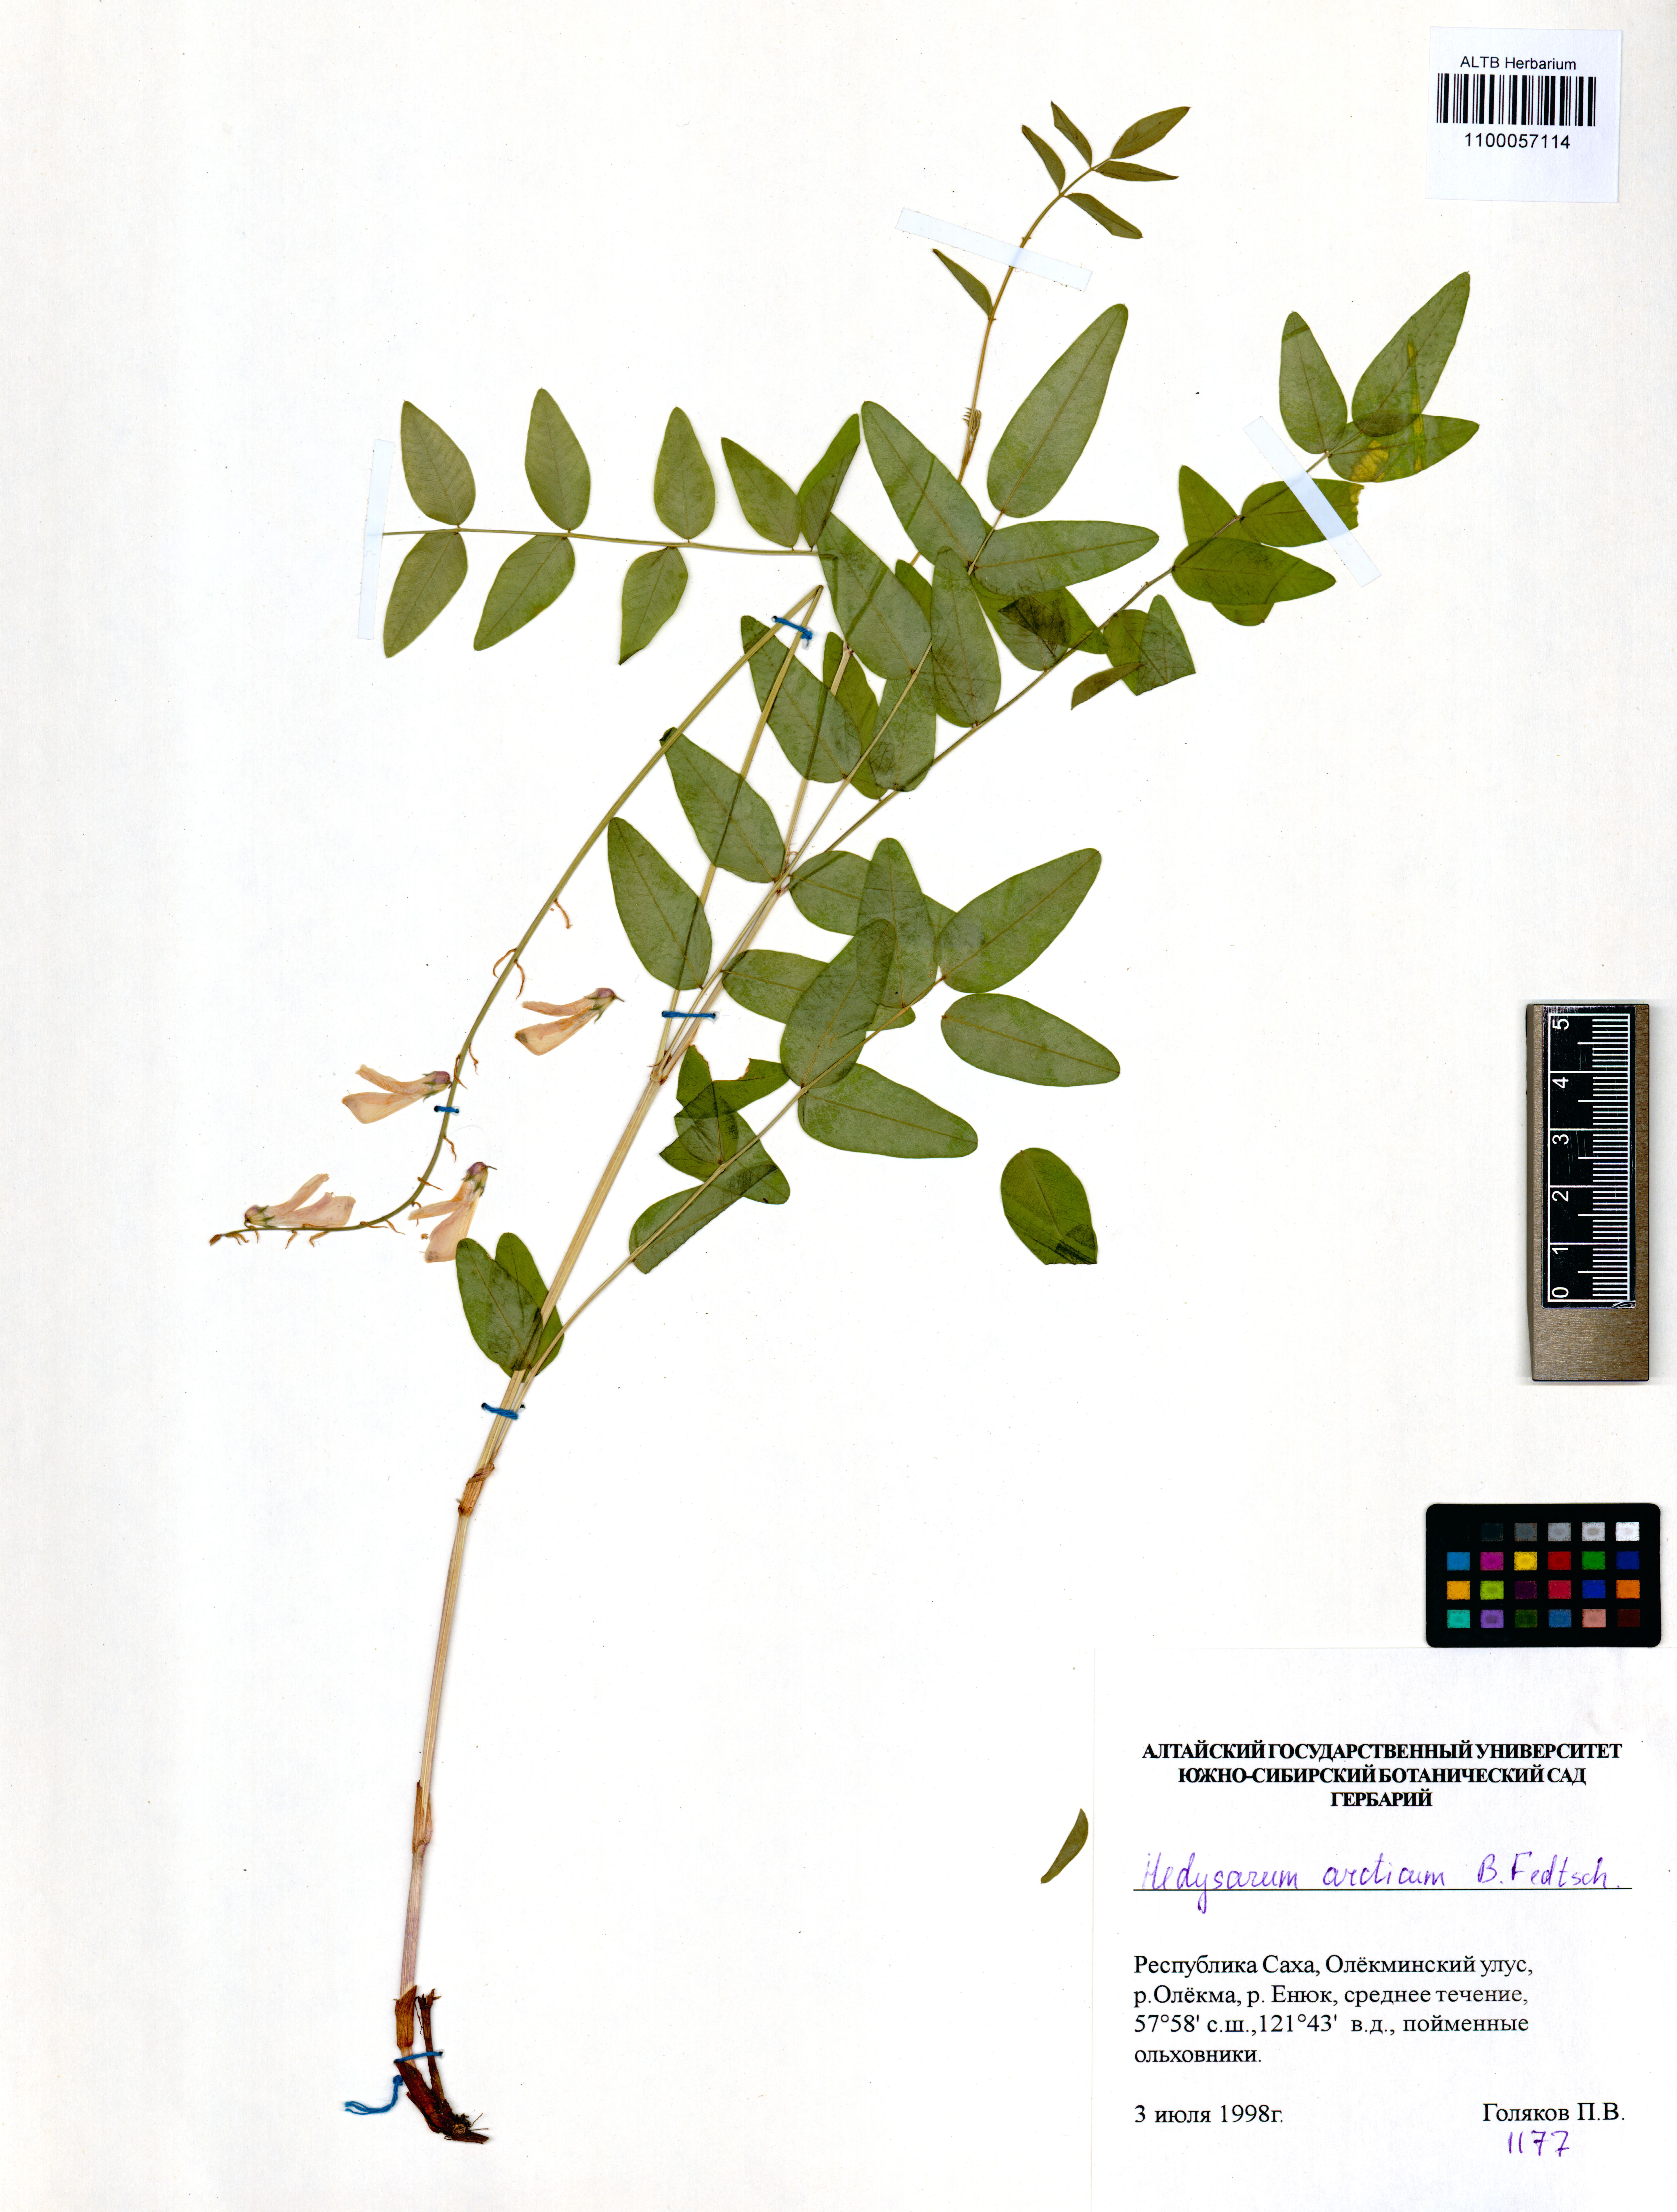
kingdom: Plantae
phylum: Tracheophyta
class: Magnoliopsida
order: Fabales
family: Fabaceae
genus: Hedysarum
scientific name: Hedysarum hedysaroides
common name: Alpine french-honeysuckle
